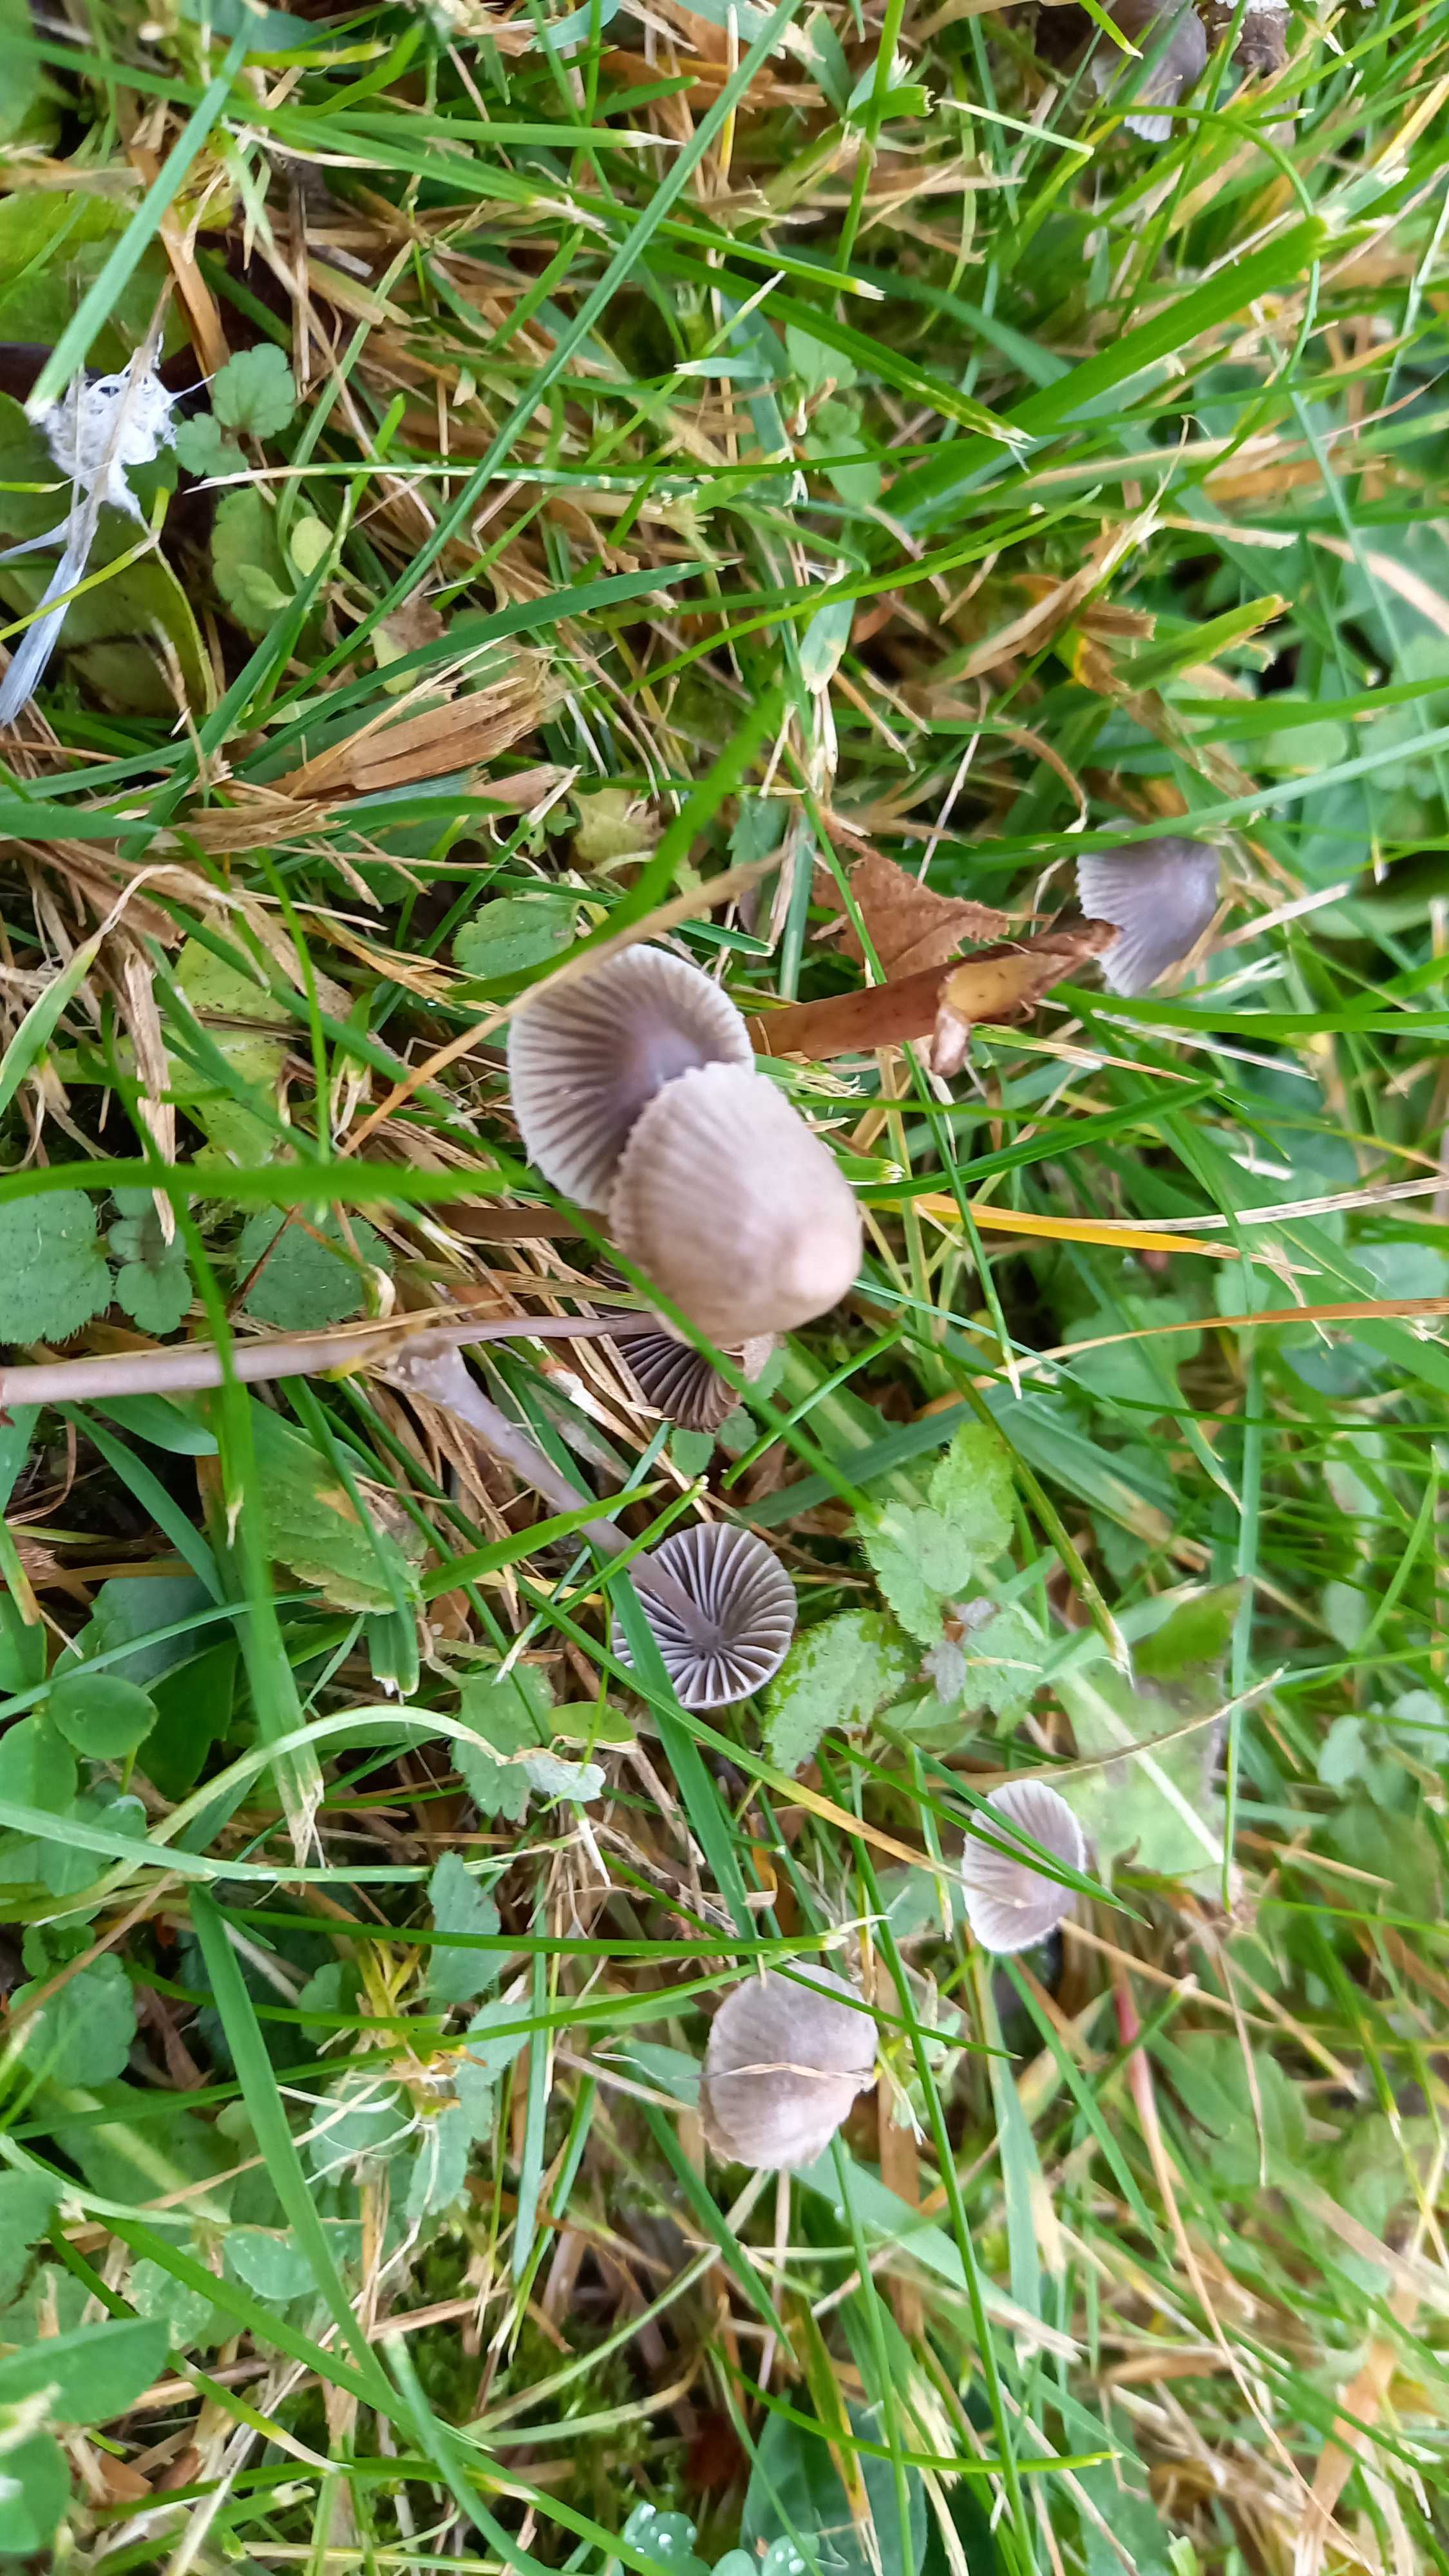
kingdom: Fungi
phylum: Basidiomycota
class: Agaricomycetes
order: Agaricales
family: Mycenaceae
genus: Mycena
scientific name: Mycena aetites
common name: plæne-huesvamp
